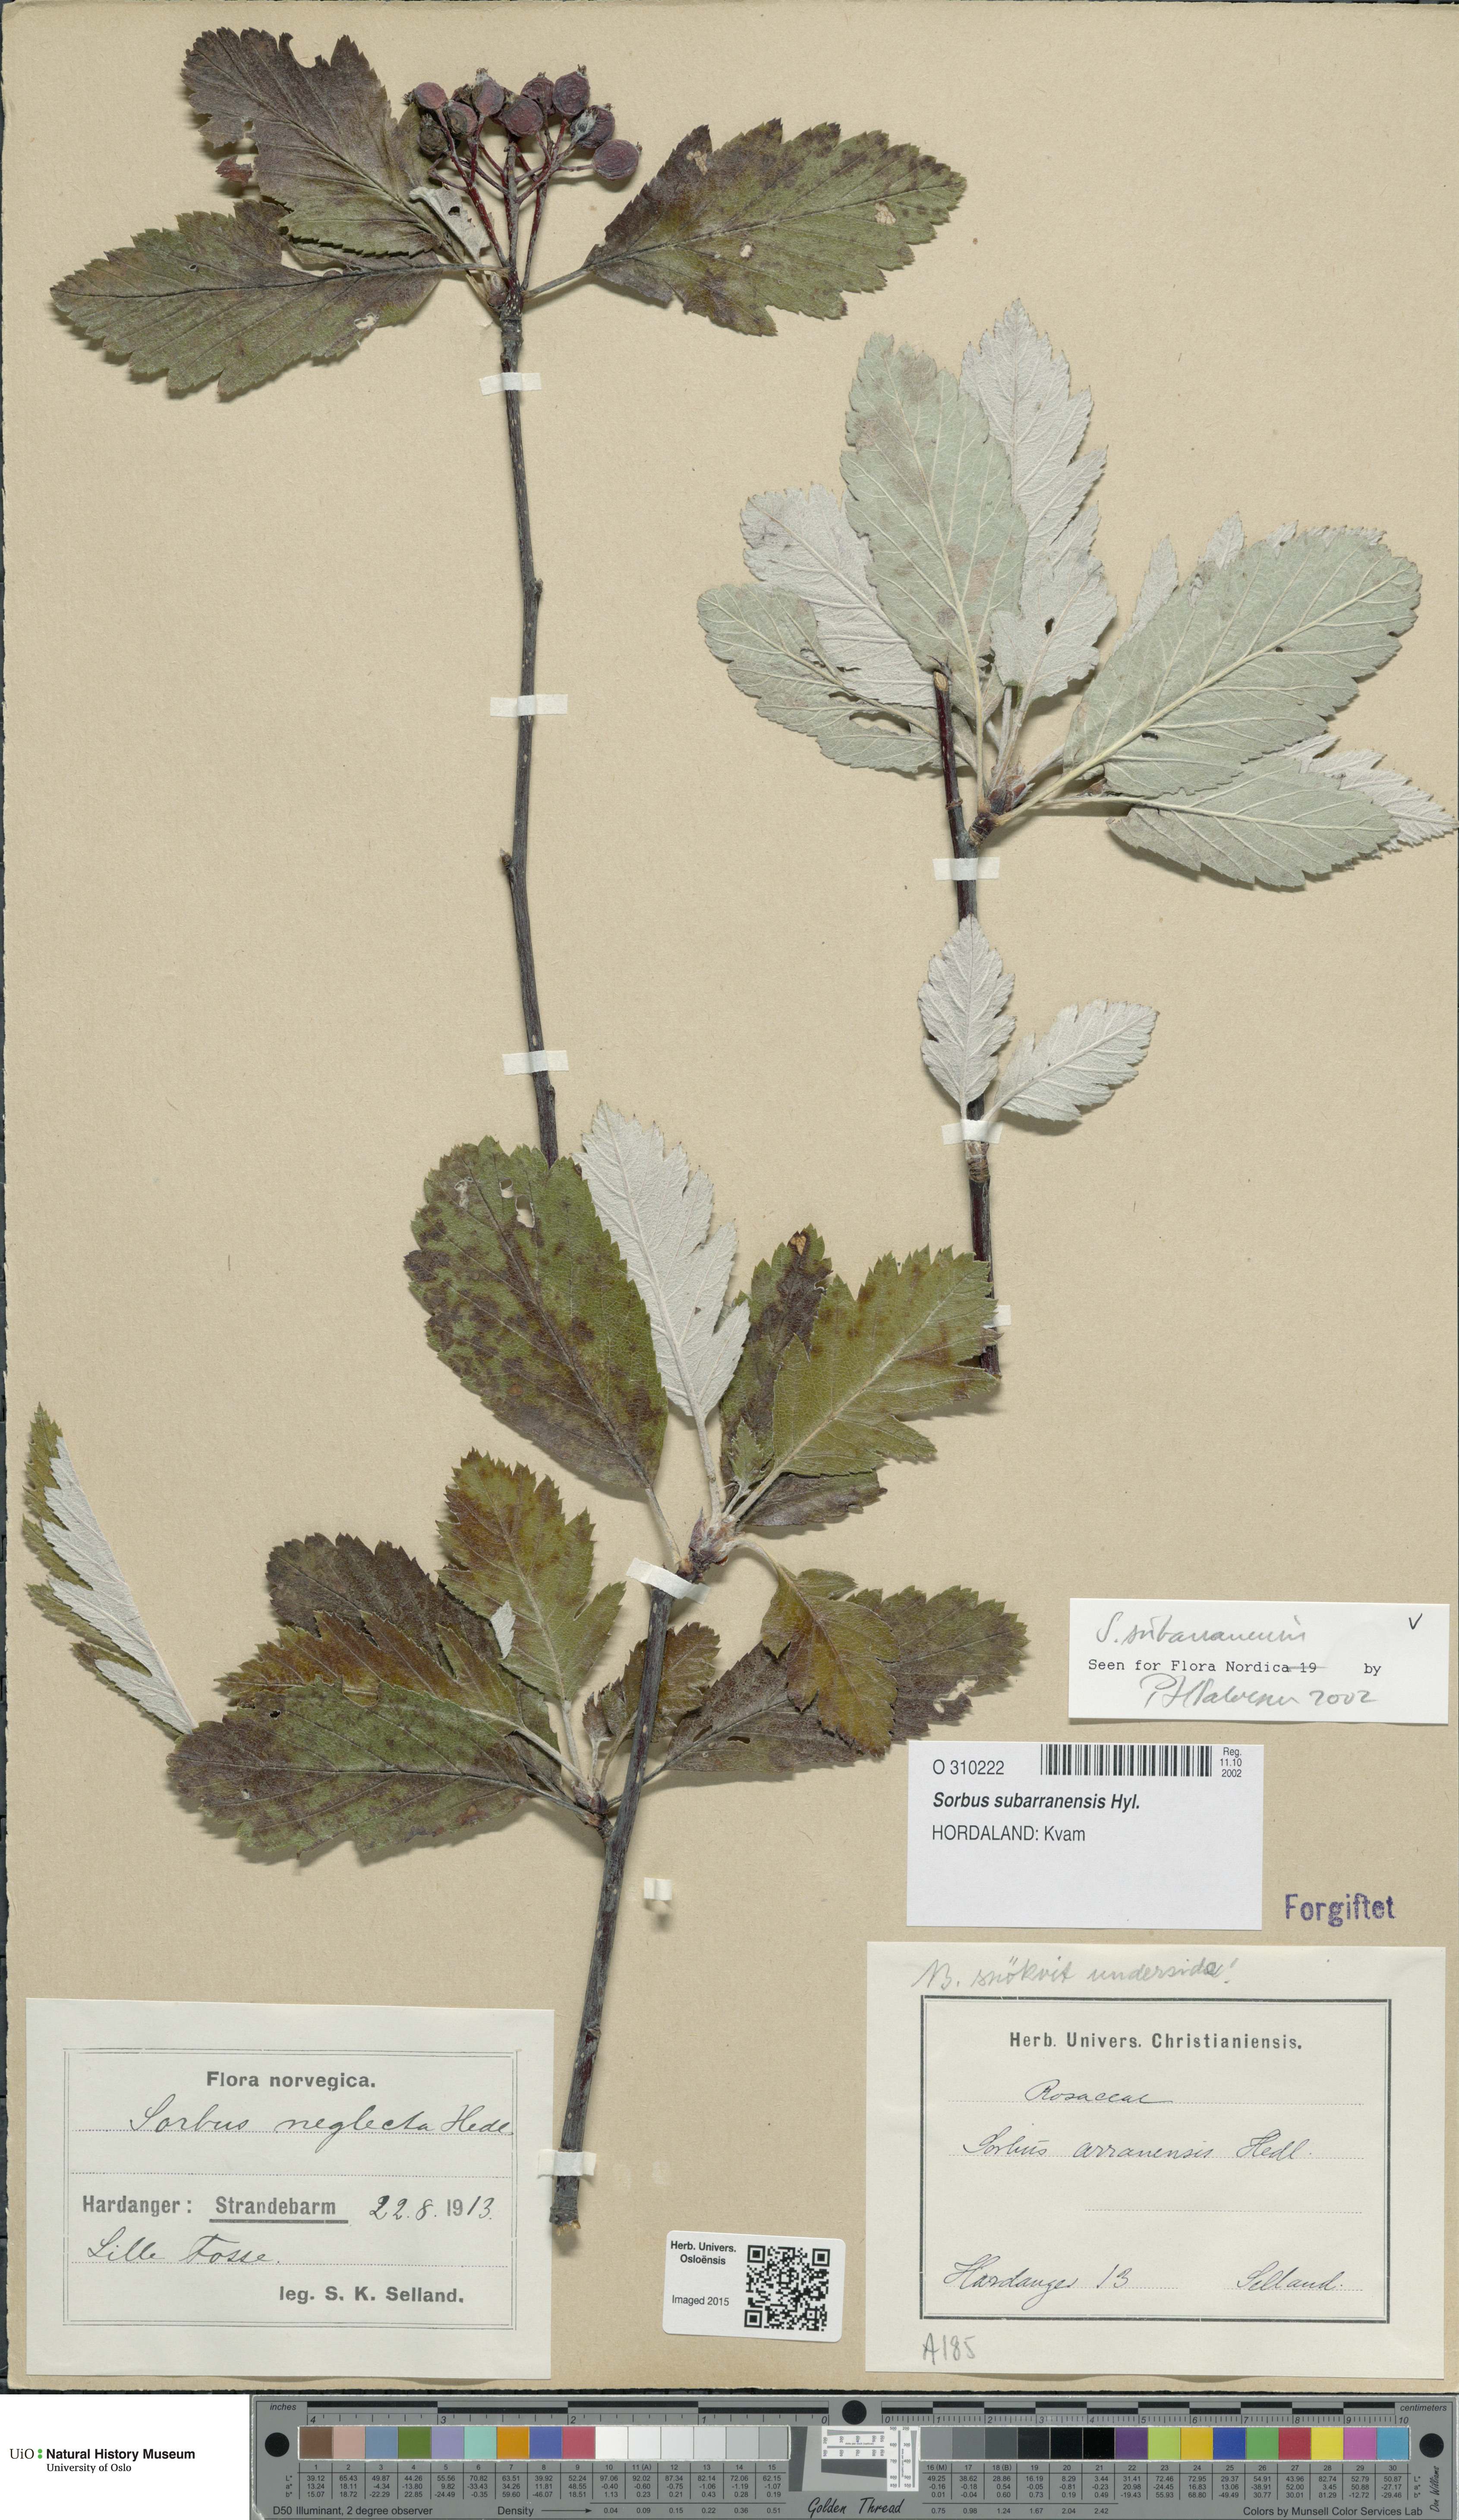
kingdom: Plantae
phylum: Tracheophyta
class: Magnoliopsida
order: Rosales
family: Rosaceae
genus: Hedlundia
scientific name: Hedlundia subarranensis
